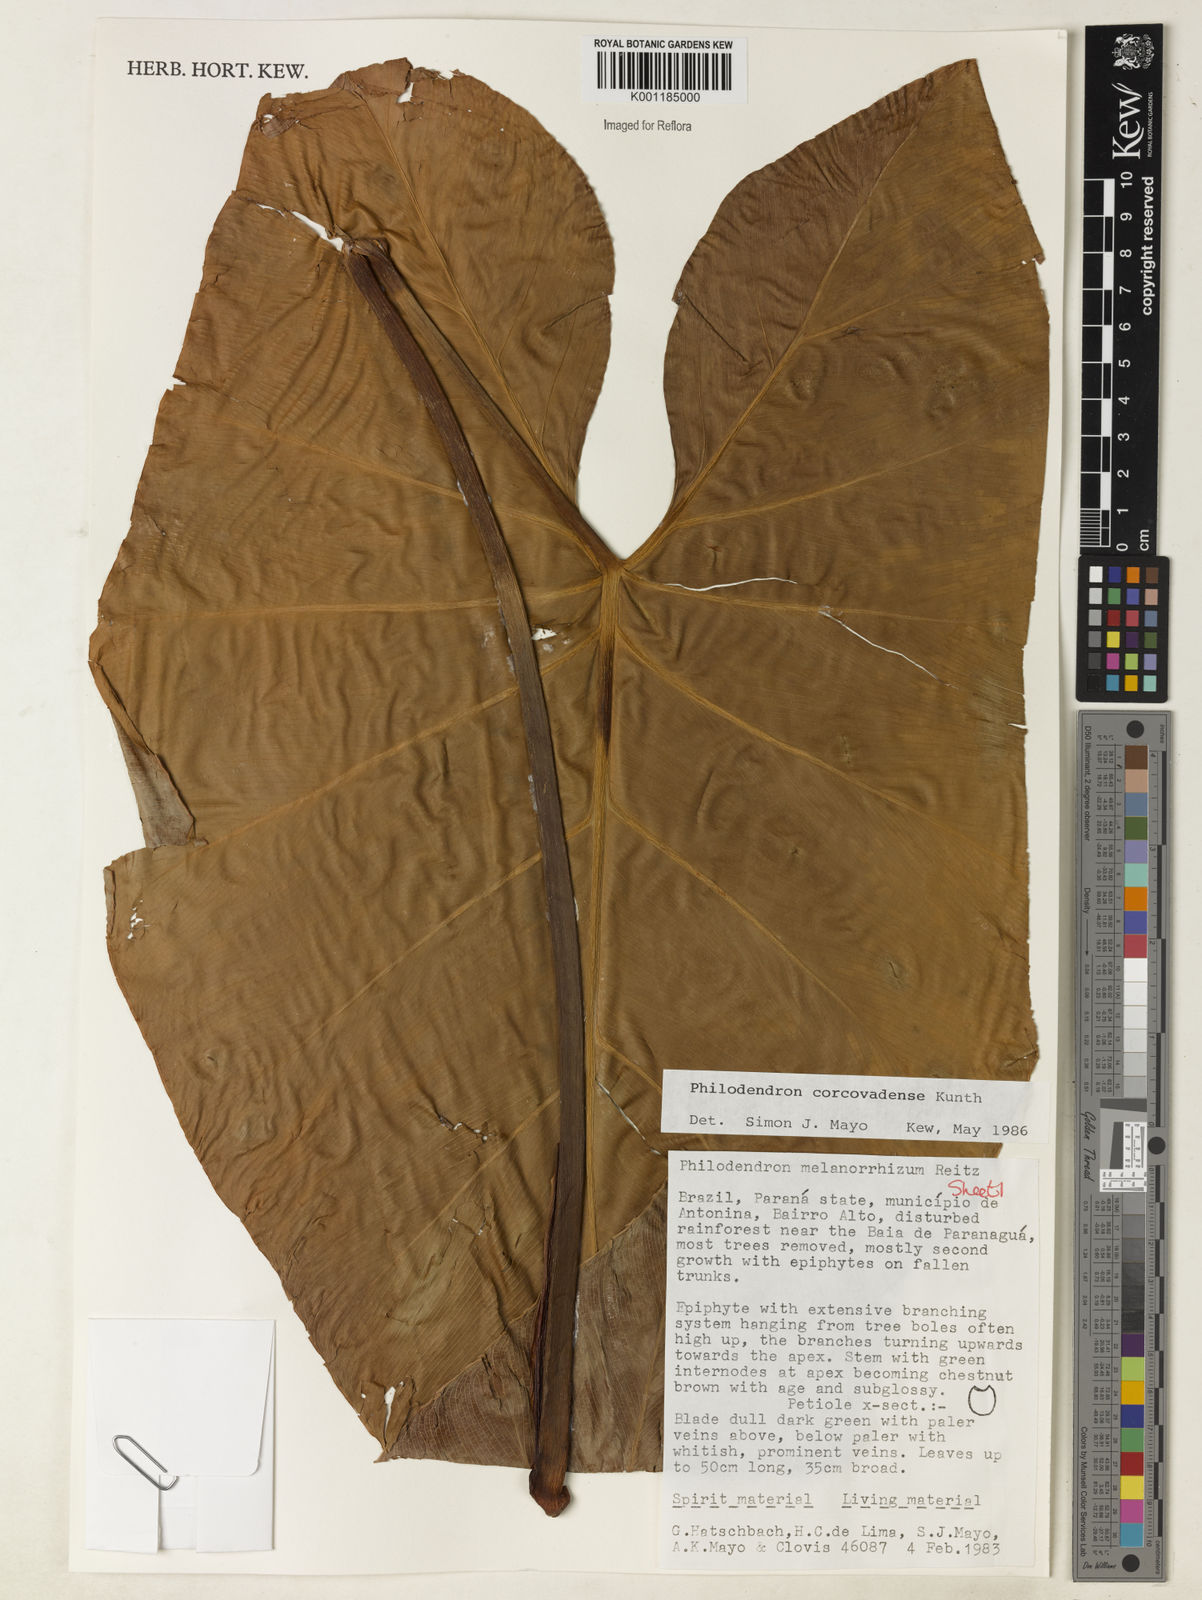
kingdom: Plantae
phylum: Tracheophyta
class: Liliopsida
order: Alismatales
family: Araceae
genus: Thaumatophyllum
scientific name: Thaumatophyllum corcovadense
